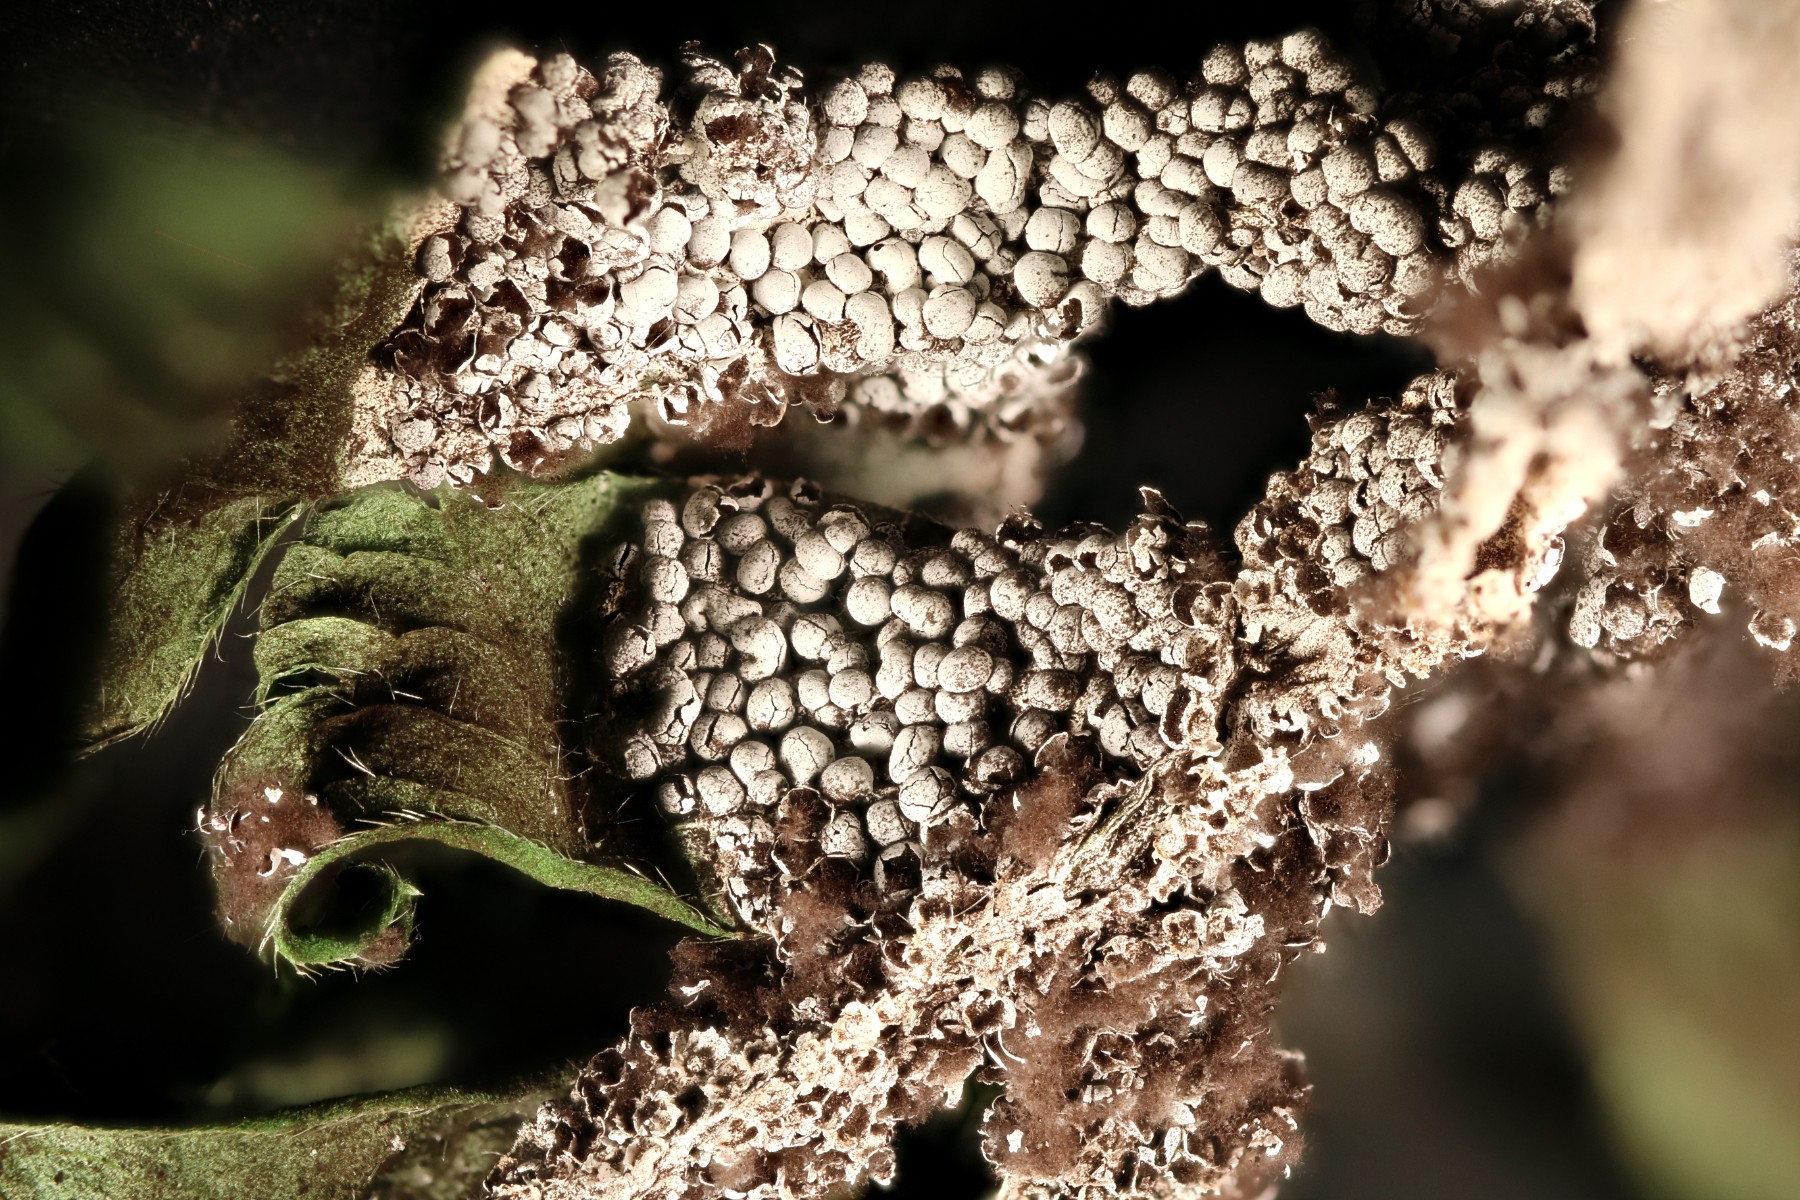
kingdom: Protozoa
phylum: Mycetozoa
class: Myxomycetes
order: Physarales
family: Didymiaceae
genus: Diderma
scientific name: Diderma spumarioides
